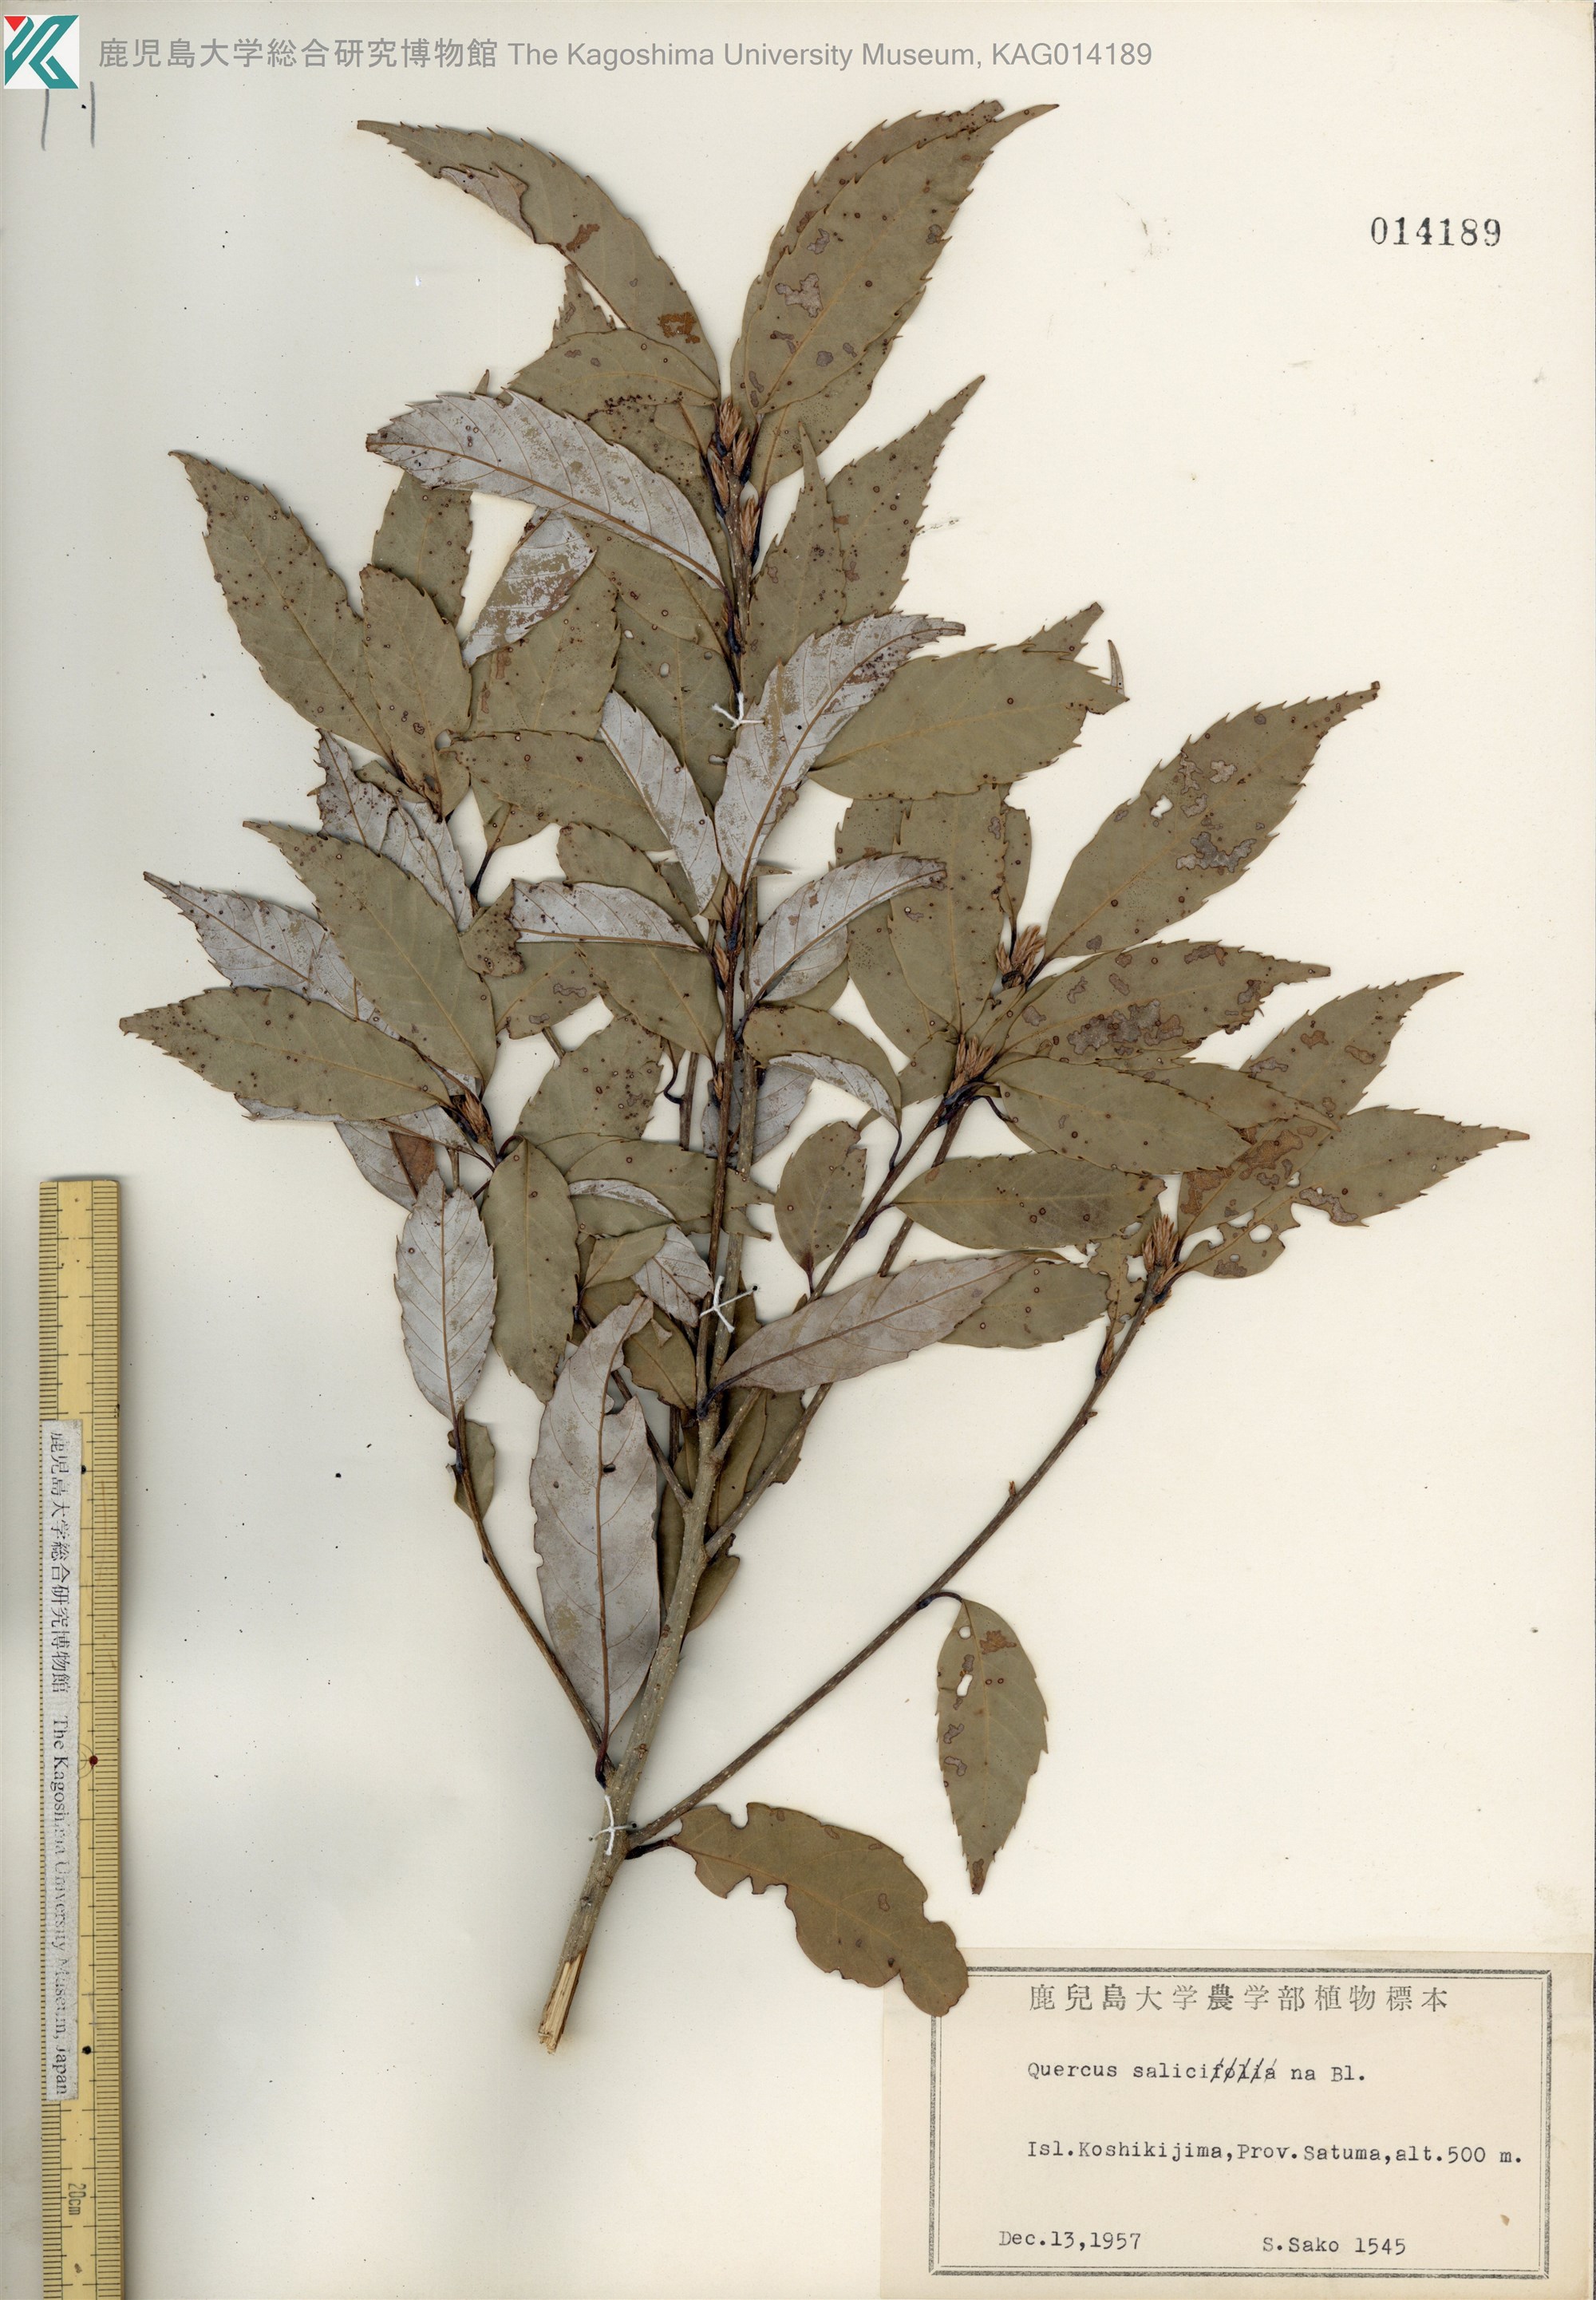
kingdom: Plantae
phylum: Tracheophyta
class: Magnoliopsida
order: Fagales
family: Fagaceae
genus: Quercus
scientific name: Quercus salicina
